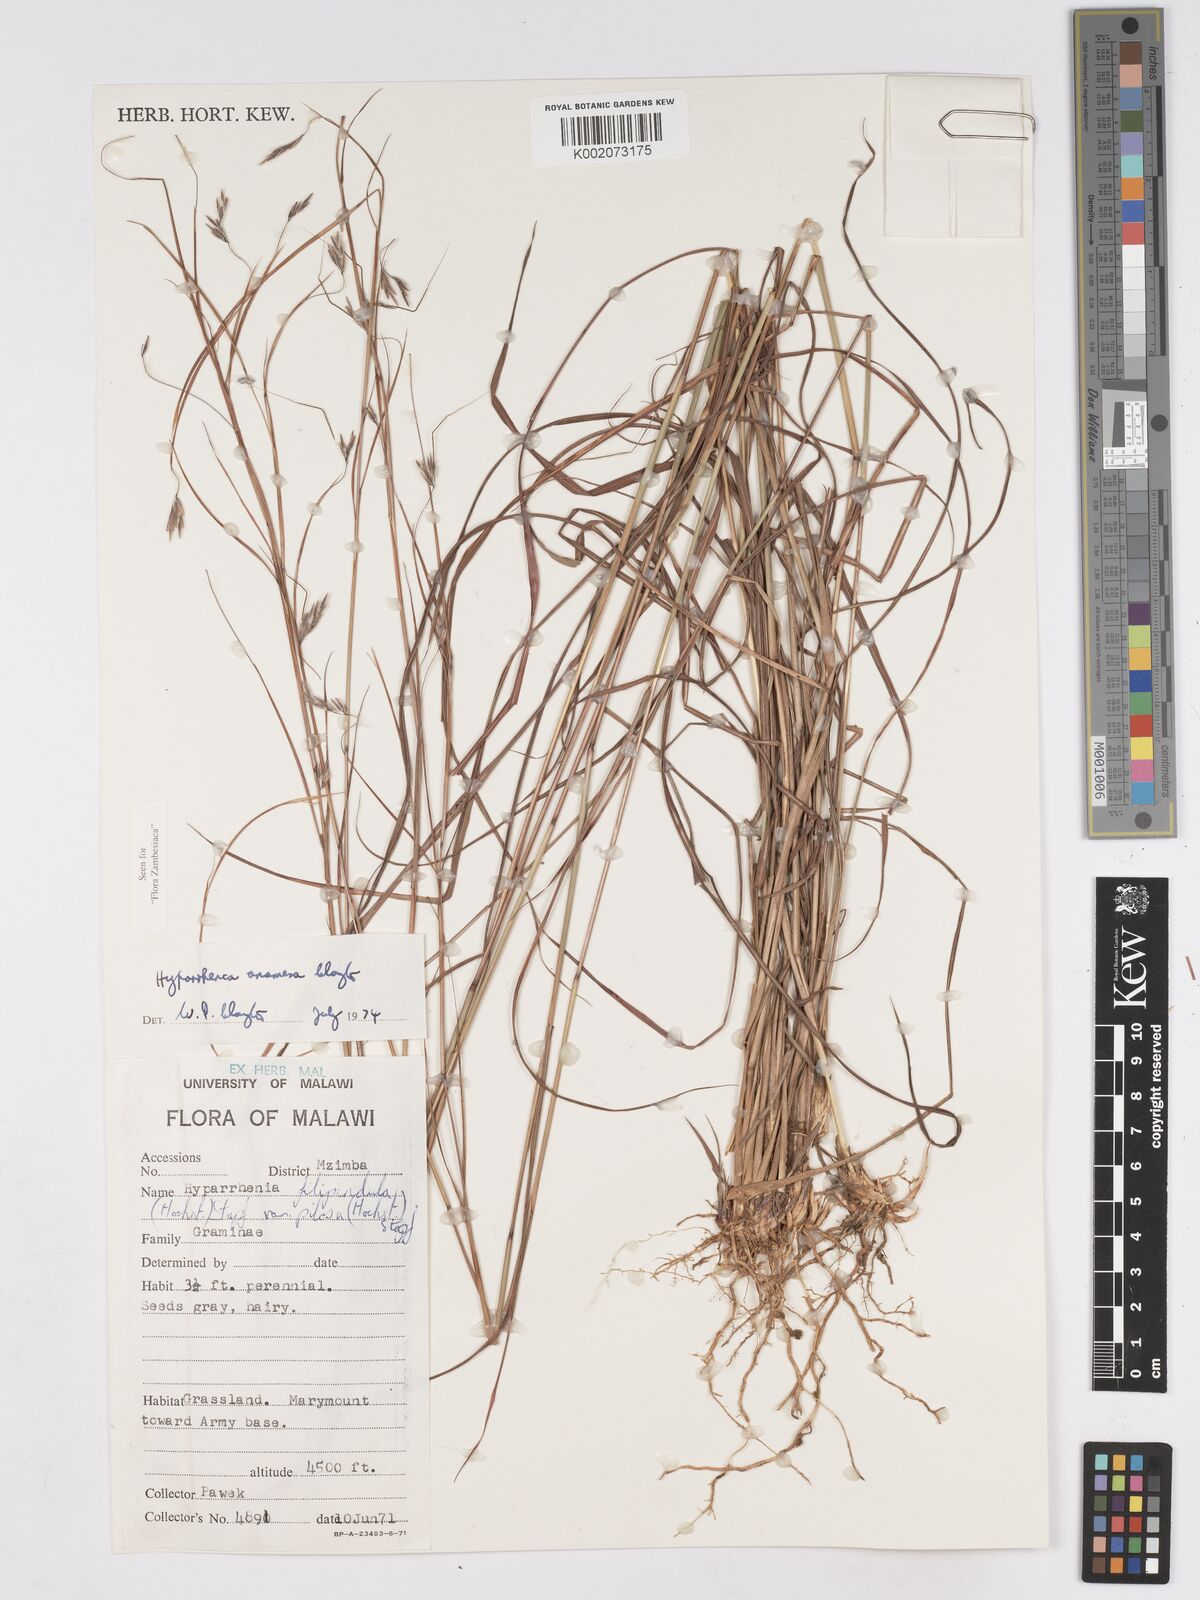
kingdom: Plantae
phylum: Tracheophyta
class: Liliopsida
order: Poales
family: Poaceae
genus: Hyparrhenia
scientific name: Hyparrhenia anamesa
